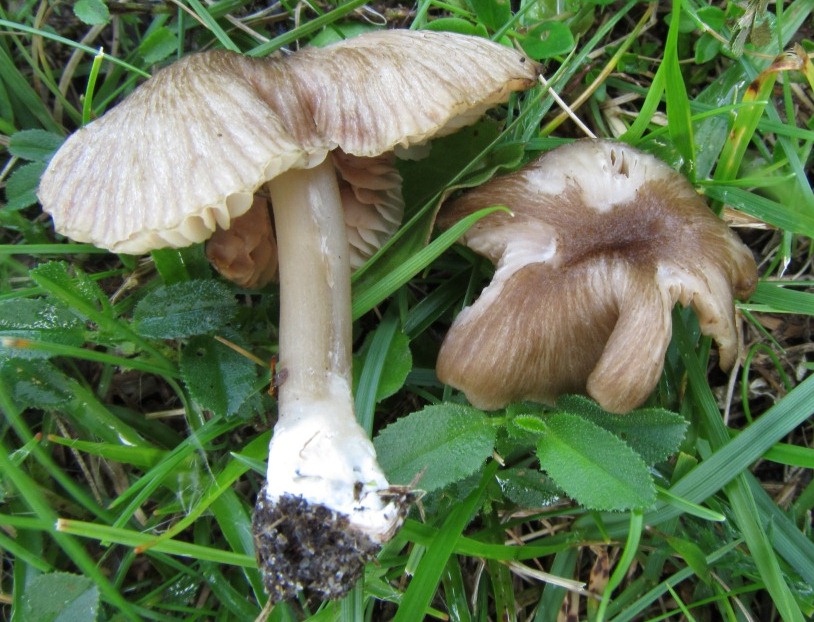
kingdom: Fungi
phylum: Basidiomycota
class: Agaricomycetes
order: Agaricales
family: Entolomataceae
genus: Entoloma
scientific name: Entoloma longistriatum
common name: gråfodet rødblad
